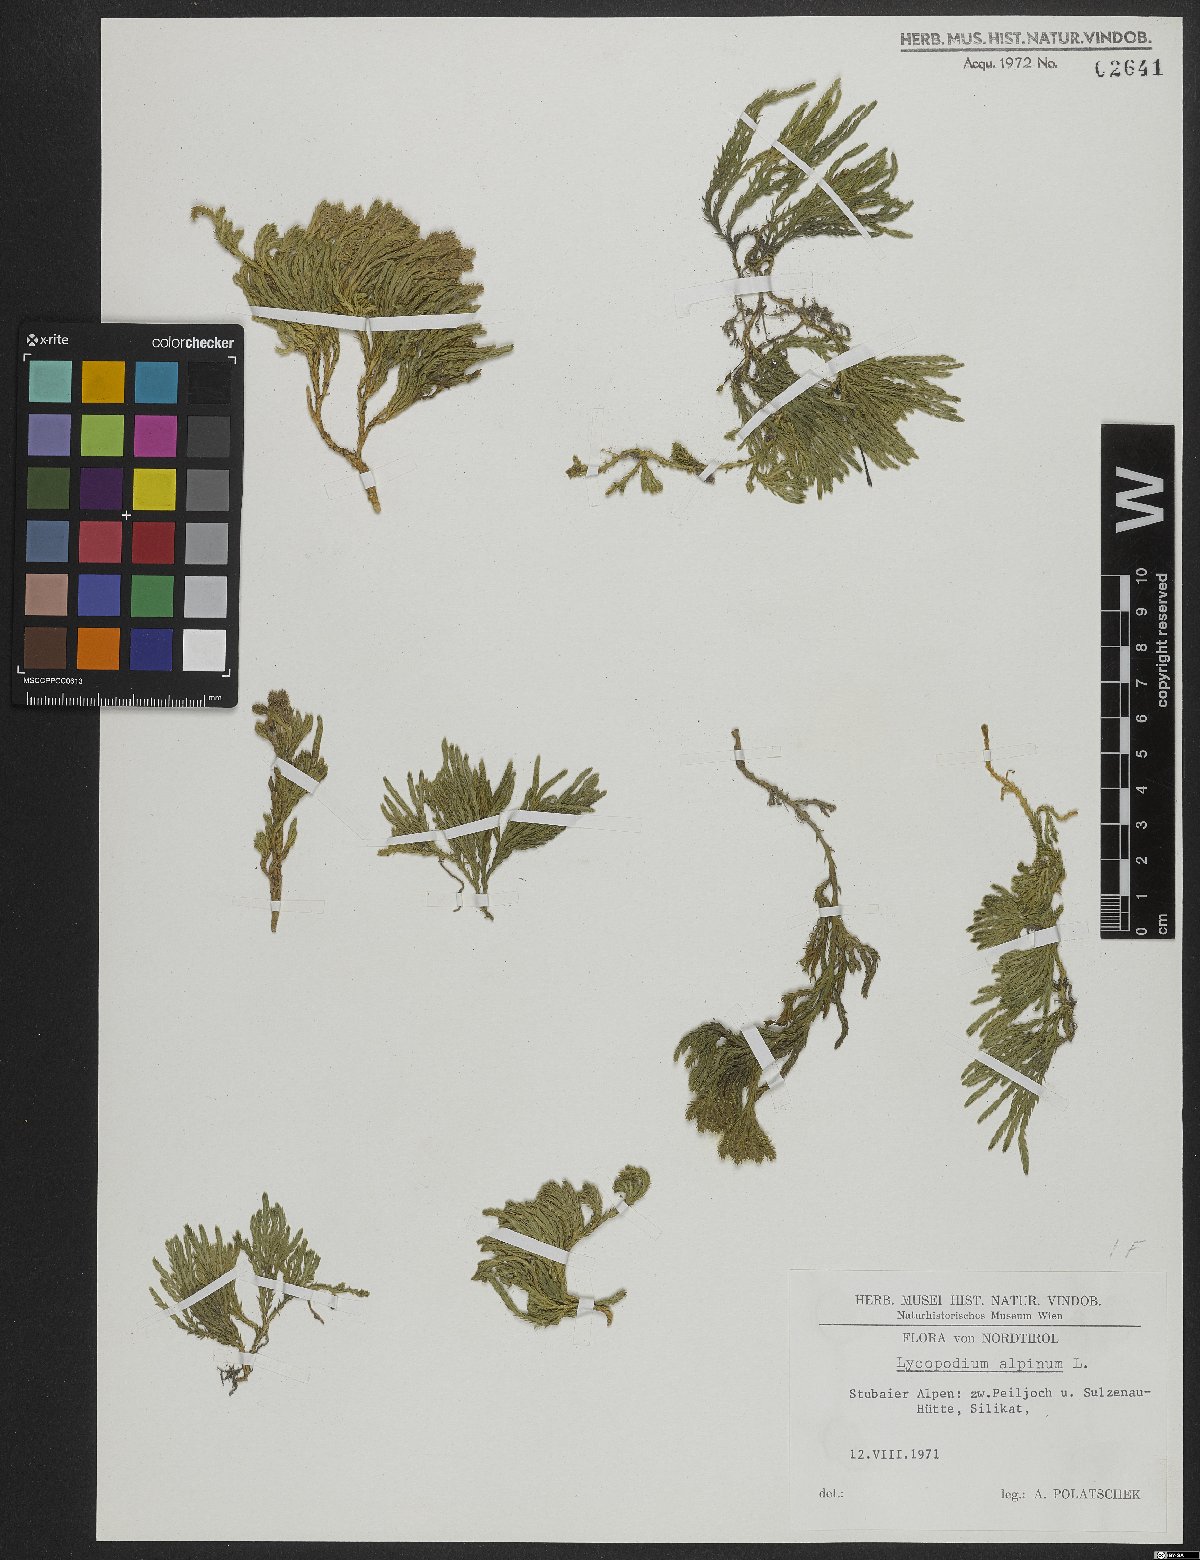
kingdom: Plantae
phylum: Tracheophyta
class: Lycopodiopsida
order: Lycopodiales
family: Lycopodiaceae
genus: Diphasiastrum
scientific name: Diphasiastrum alpinum
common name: Alpine clubmoss
